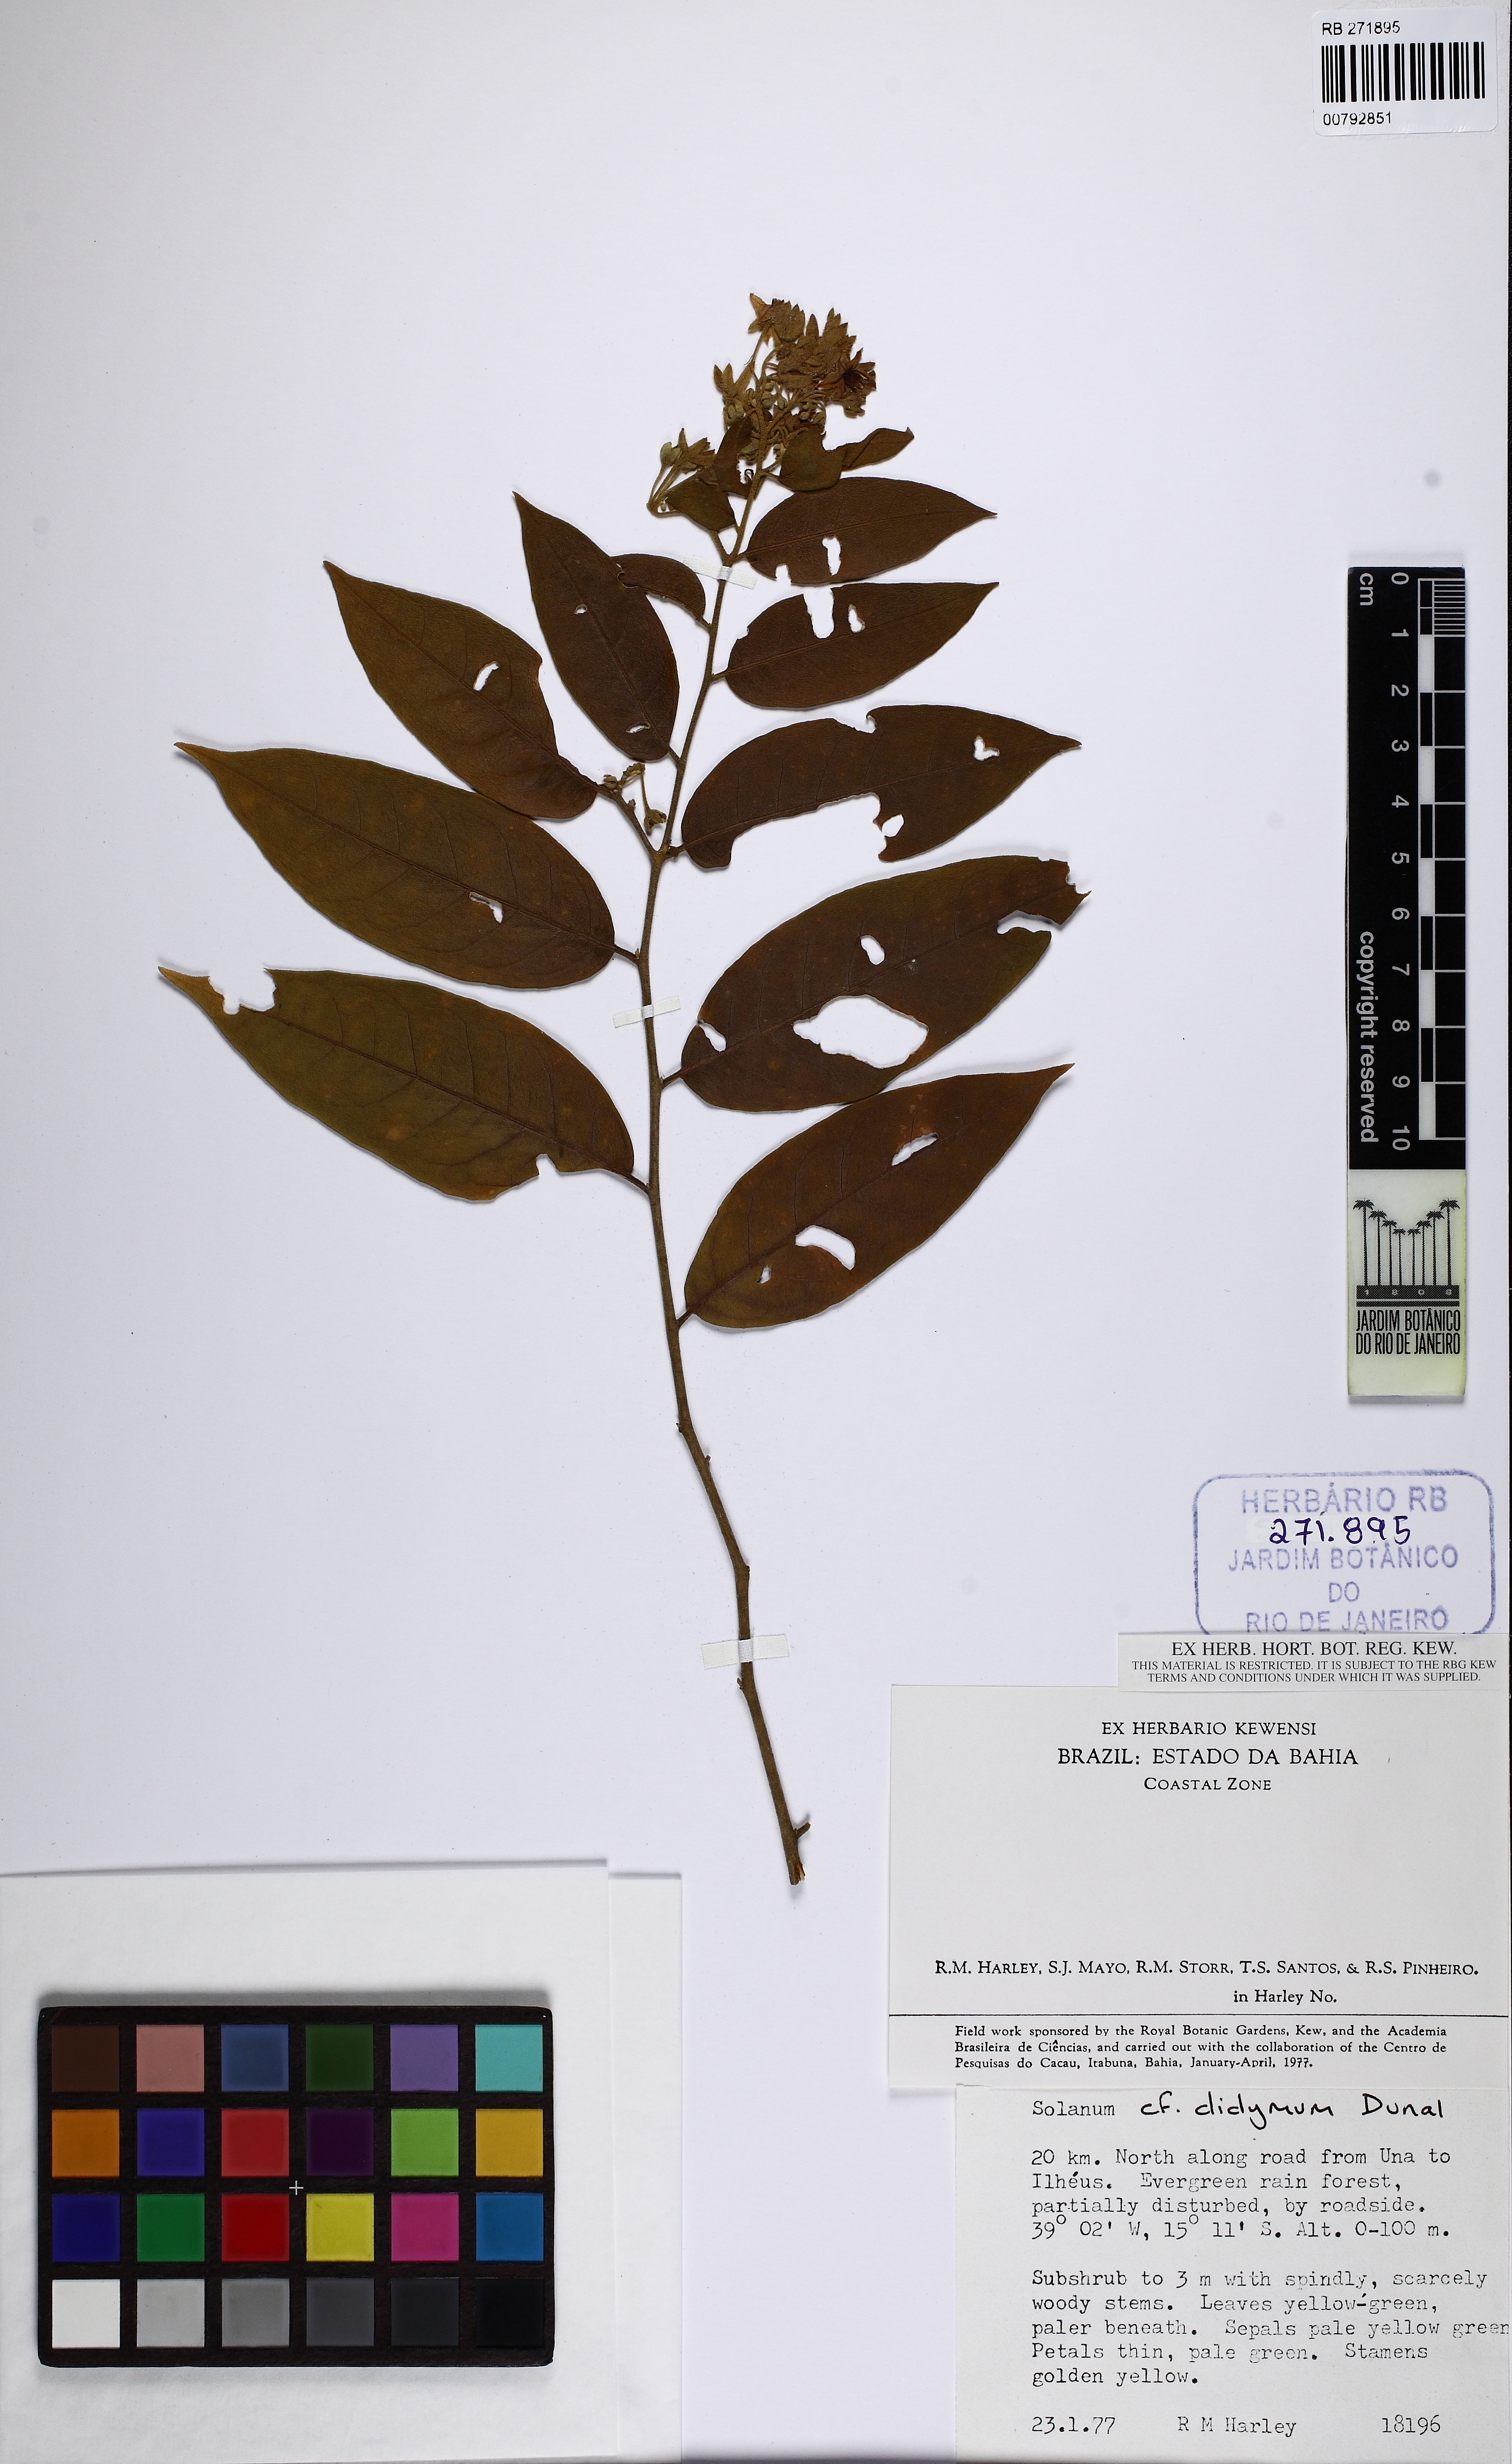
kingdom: Plantae
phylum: Tracheophyta
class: Magnoliopsida
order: Solanales
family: Solanaceae
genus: Solanum
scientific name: Solanum didymum
